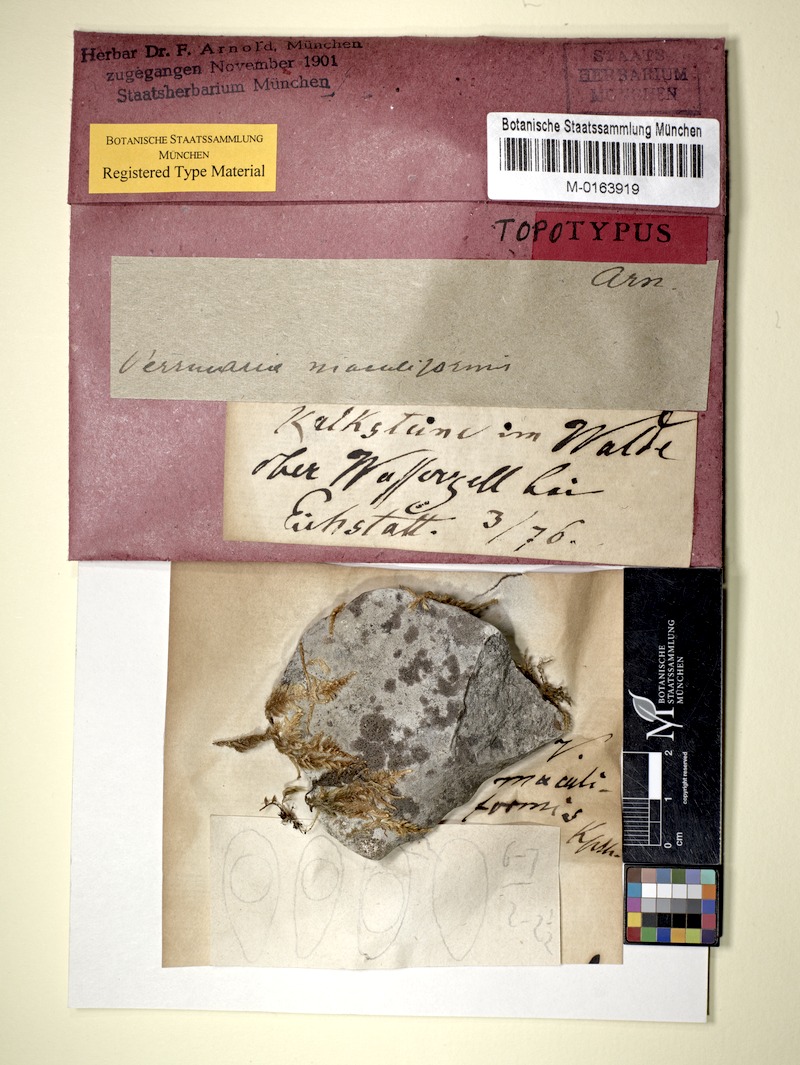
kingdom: Fungi
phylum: Ascomycota
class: Eurotiomycetes
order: Verrucariales
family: Verrucariaceae
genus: Verrucaria
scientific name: Verrucaria maculiformis
